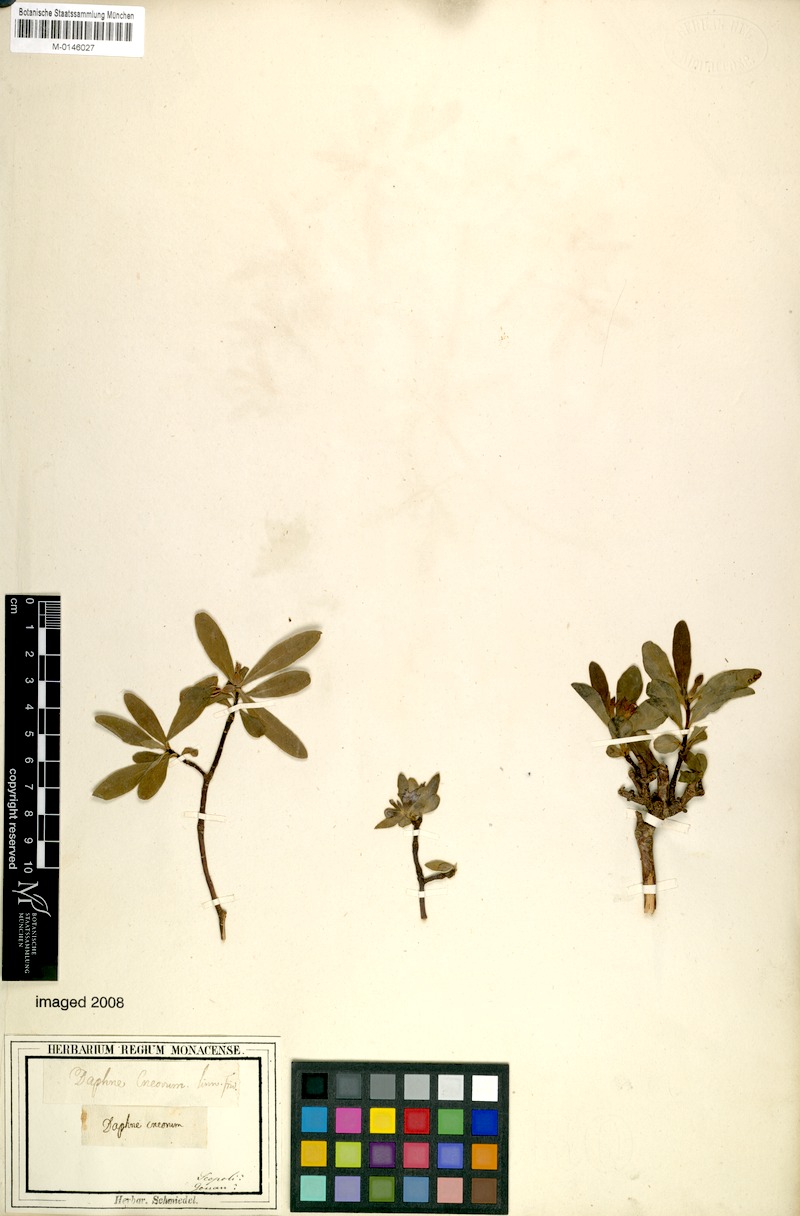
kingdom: Plantae
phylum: Tracheophyta
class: Magnoliopsida
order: Malvales
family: Thymelaeaceae
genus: Daphne
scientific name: Daphne alpina
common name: Alpine daphne
